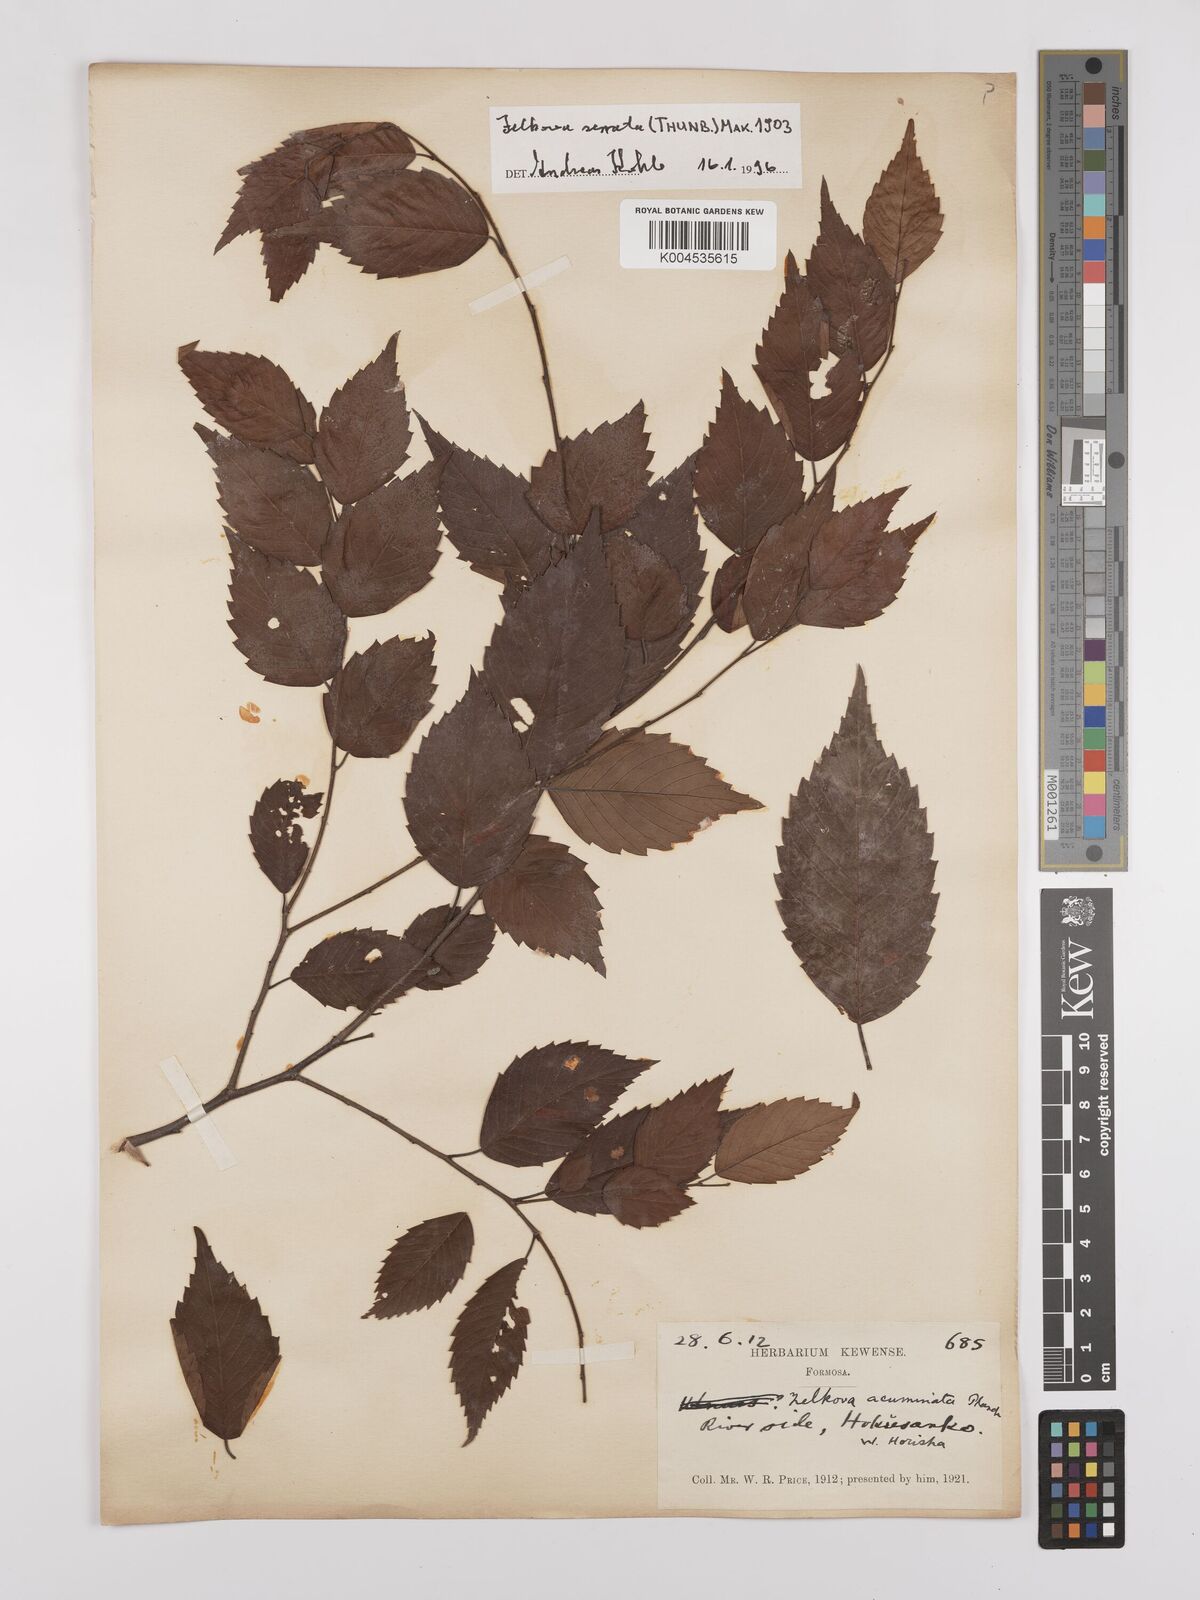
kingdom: Plantae
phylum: Tracheophyta
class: Magnoliopsida
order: Rosales
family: Ulmaceae
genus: Zelkova
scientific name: Zelkova serrata
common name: Japanese zelkova
